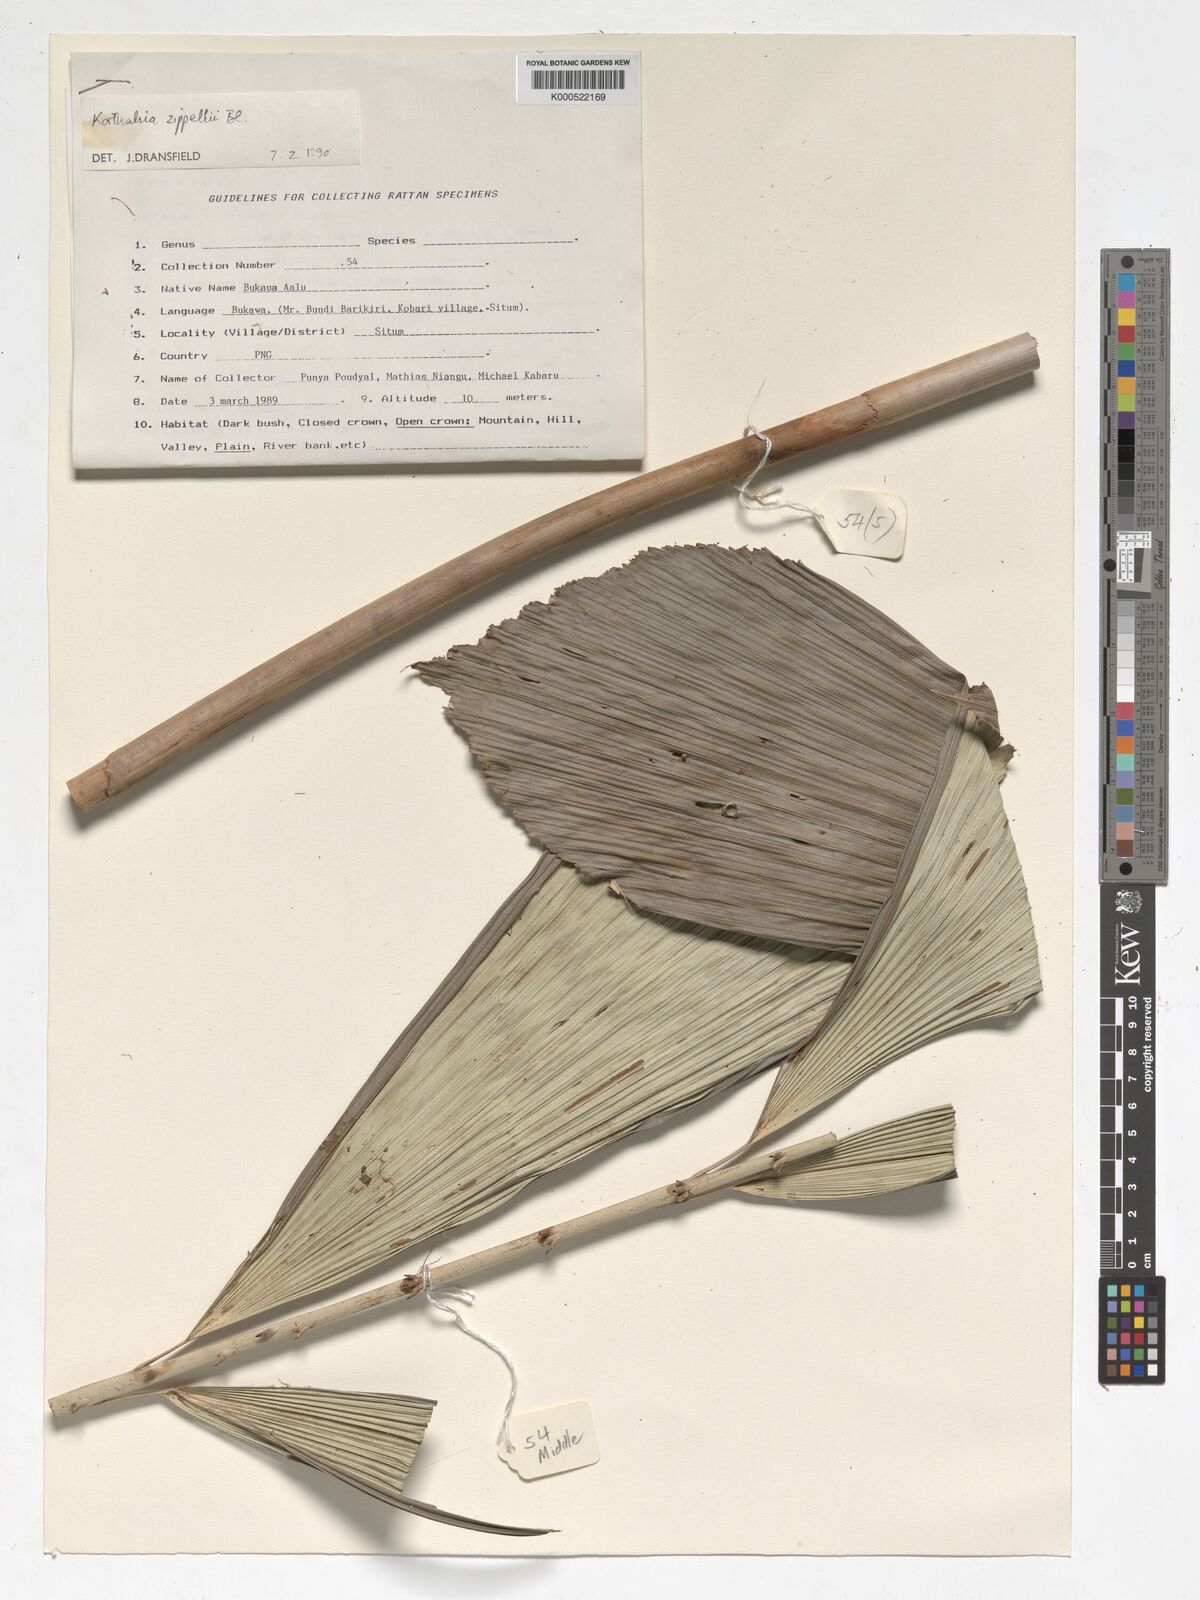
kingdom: Plantae
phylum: Tracheophyta
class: Liliopsida
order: Arecales
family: Arecaceae
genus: Korthalsia
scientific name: Korthalsia zippelii
